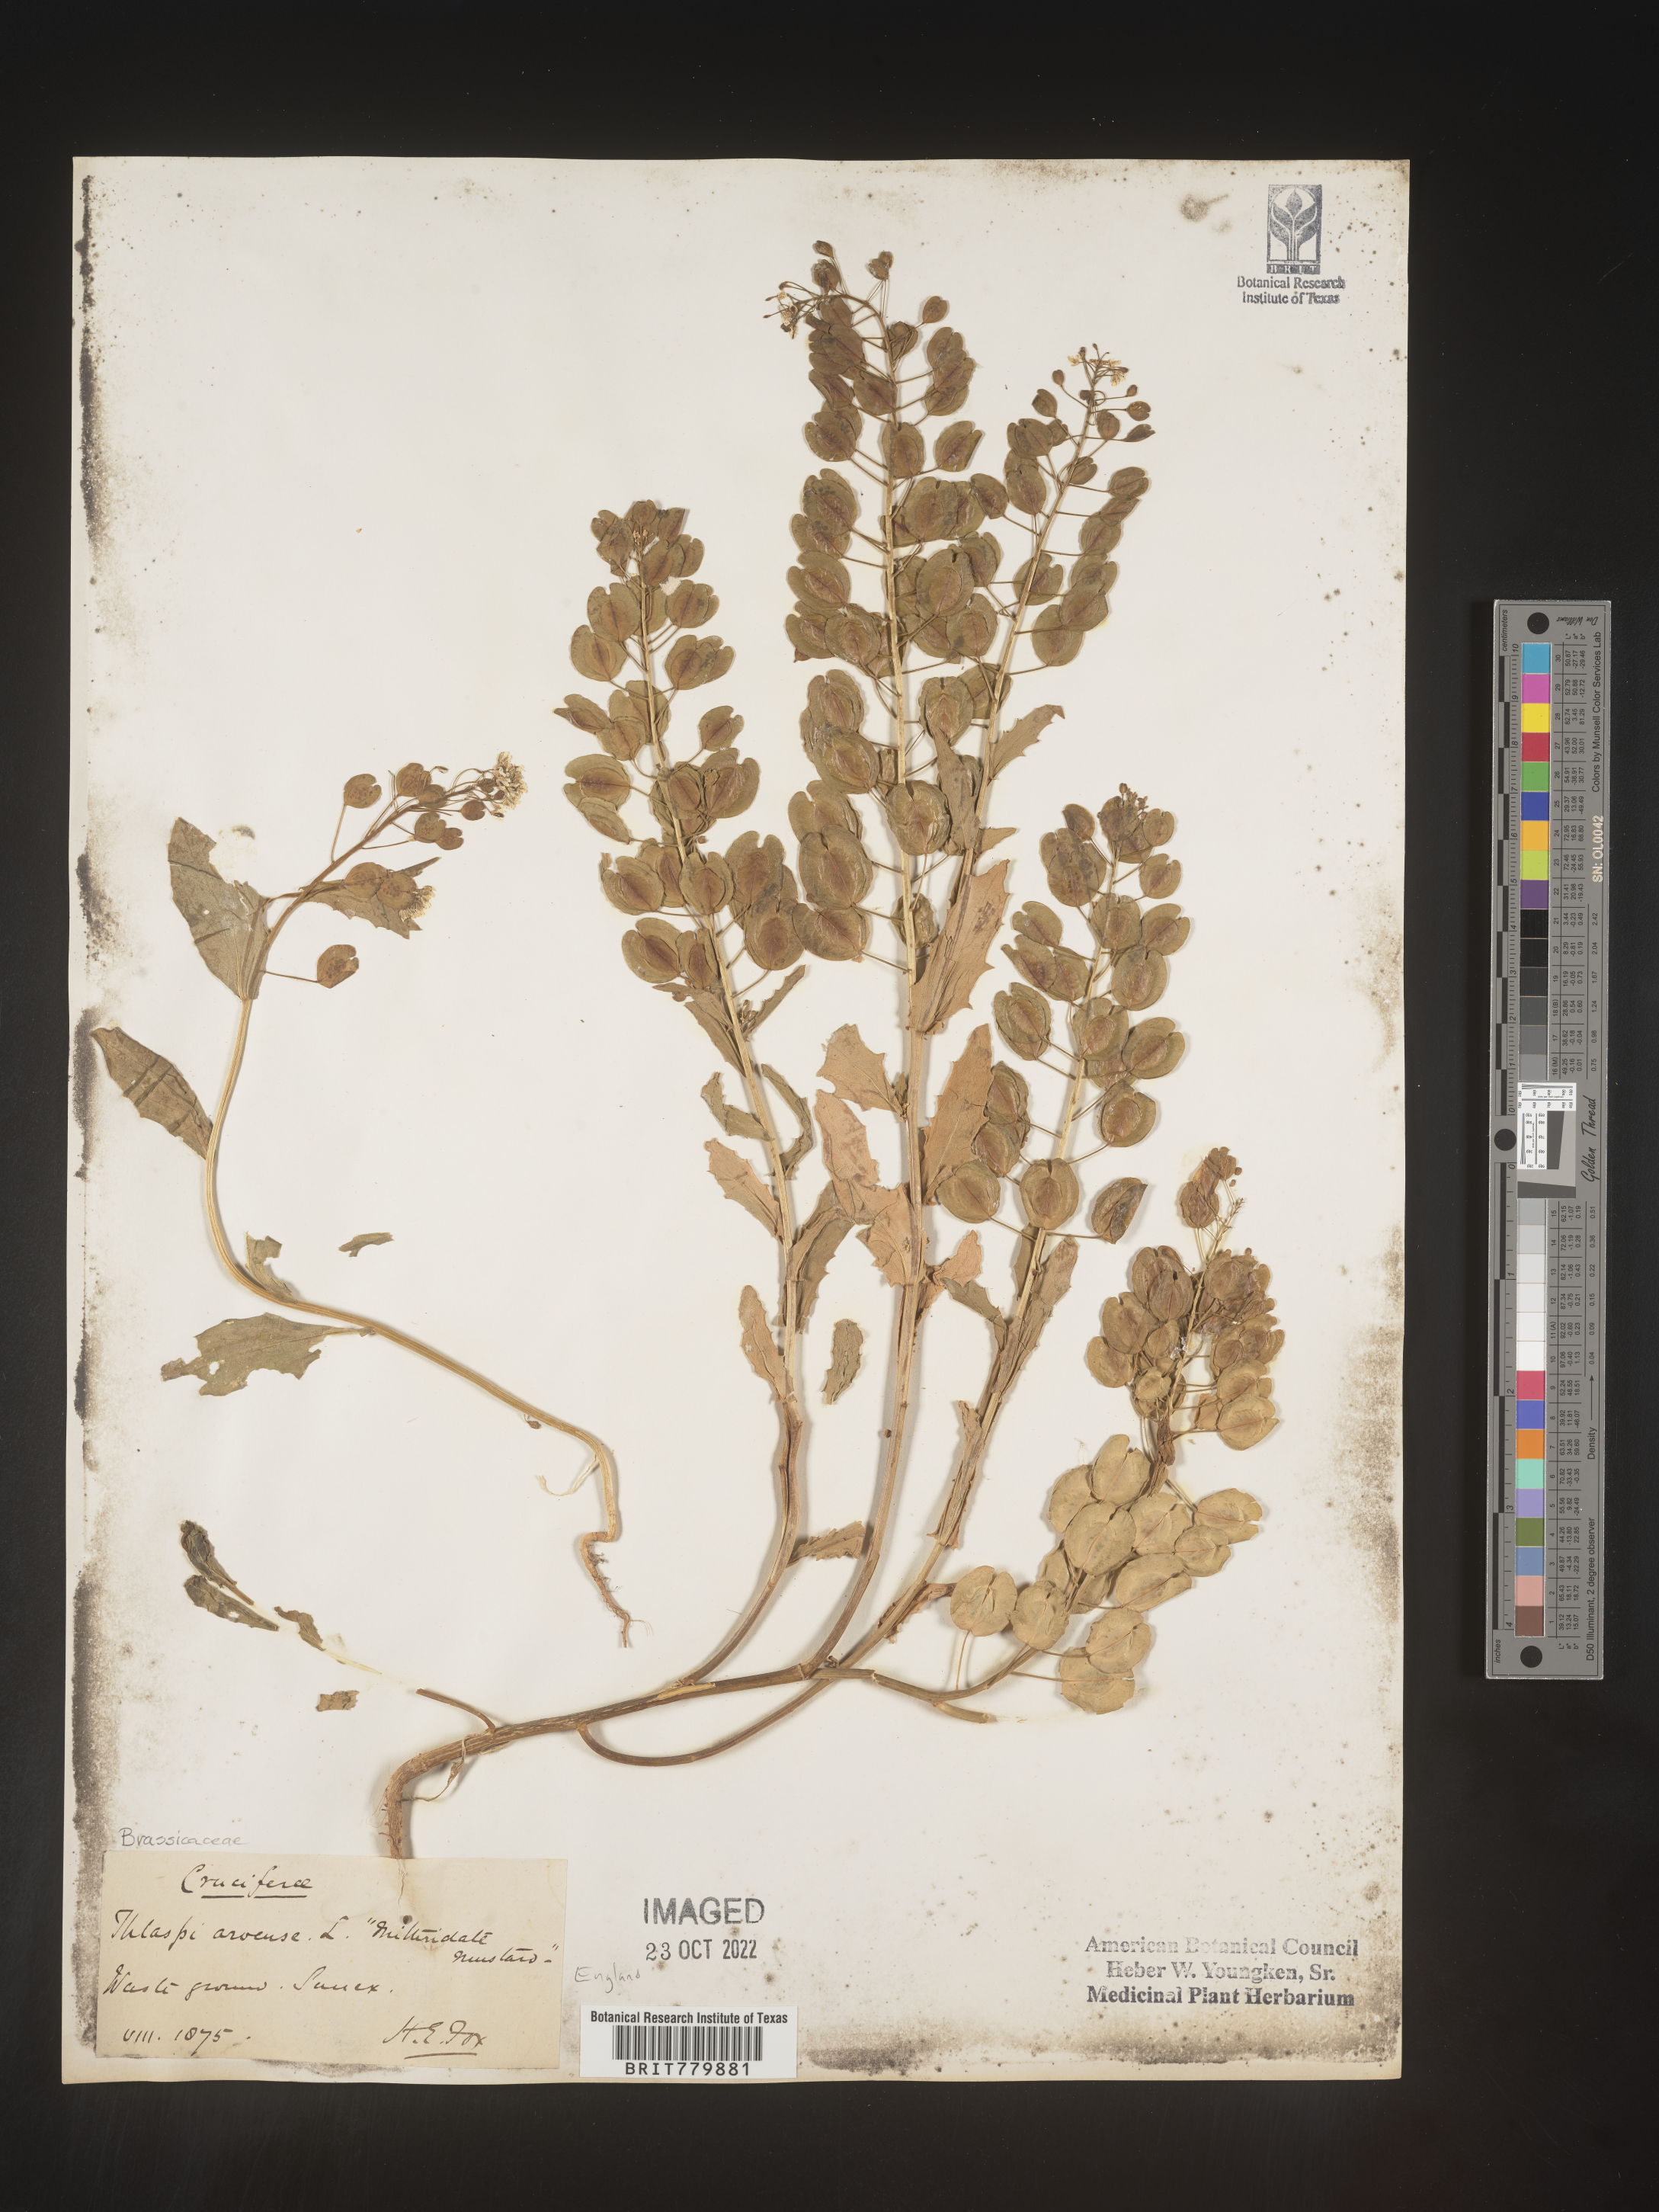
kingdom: Plantae
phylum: Tracheophyta
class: Magnoliopsida
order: Brassicales
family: Brassicaceae
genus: Thlaspi
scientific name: Thlaspi
